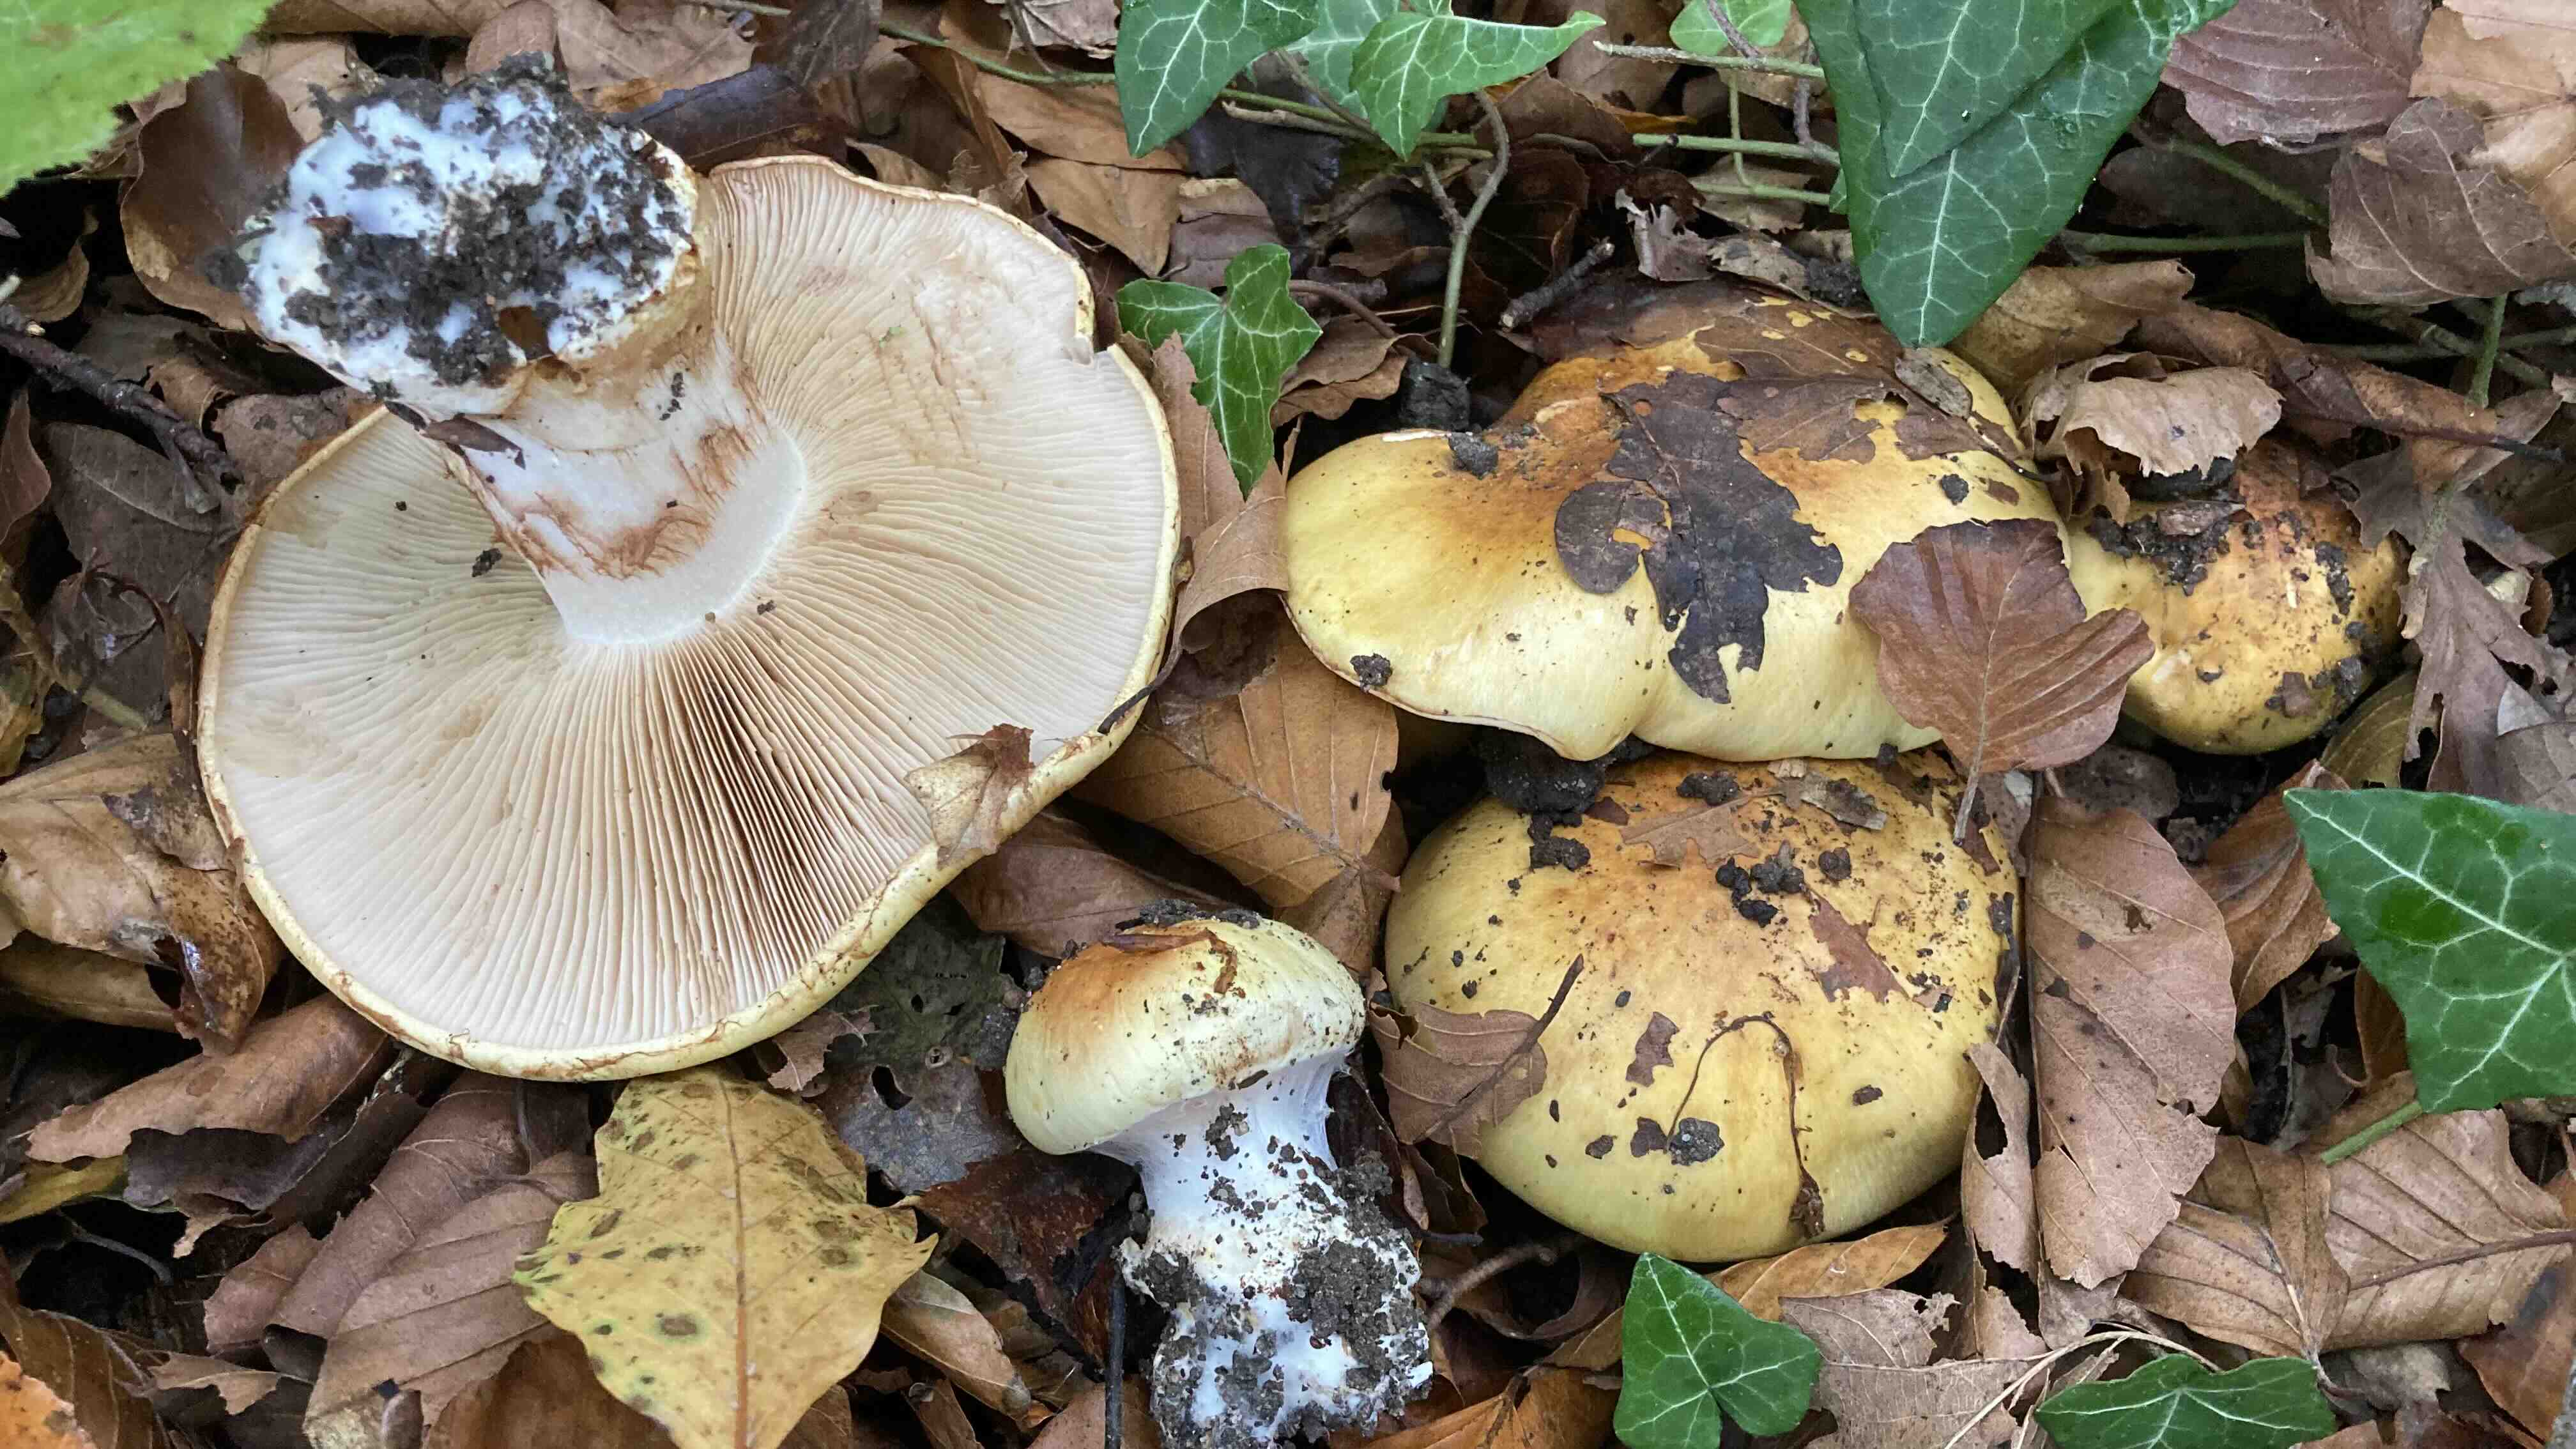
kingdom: Fungi
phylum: Basidiomycota
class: Agaricomycetes
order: Agaricales
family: Cortinariaceae
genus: Phlegmacium
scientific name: Phlegmacium caesiocortinatum
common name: rundsporet slørhat
